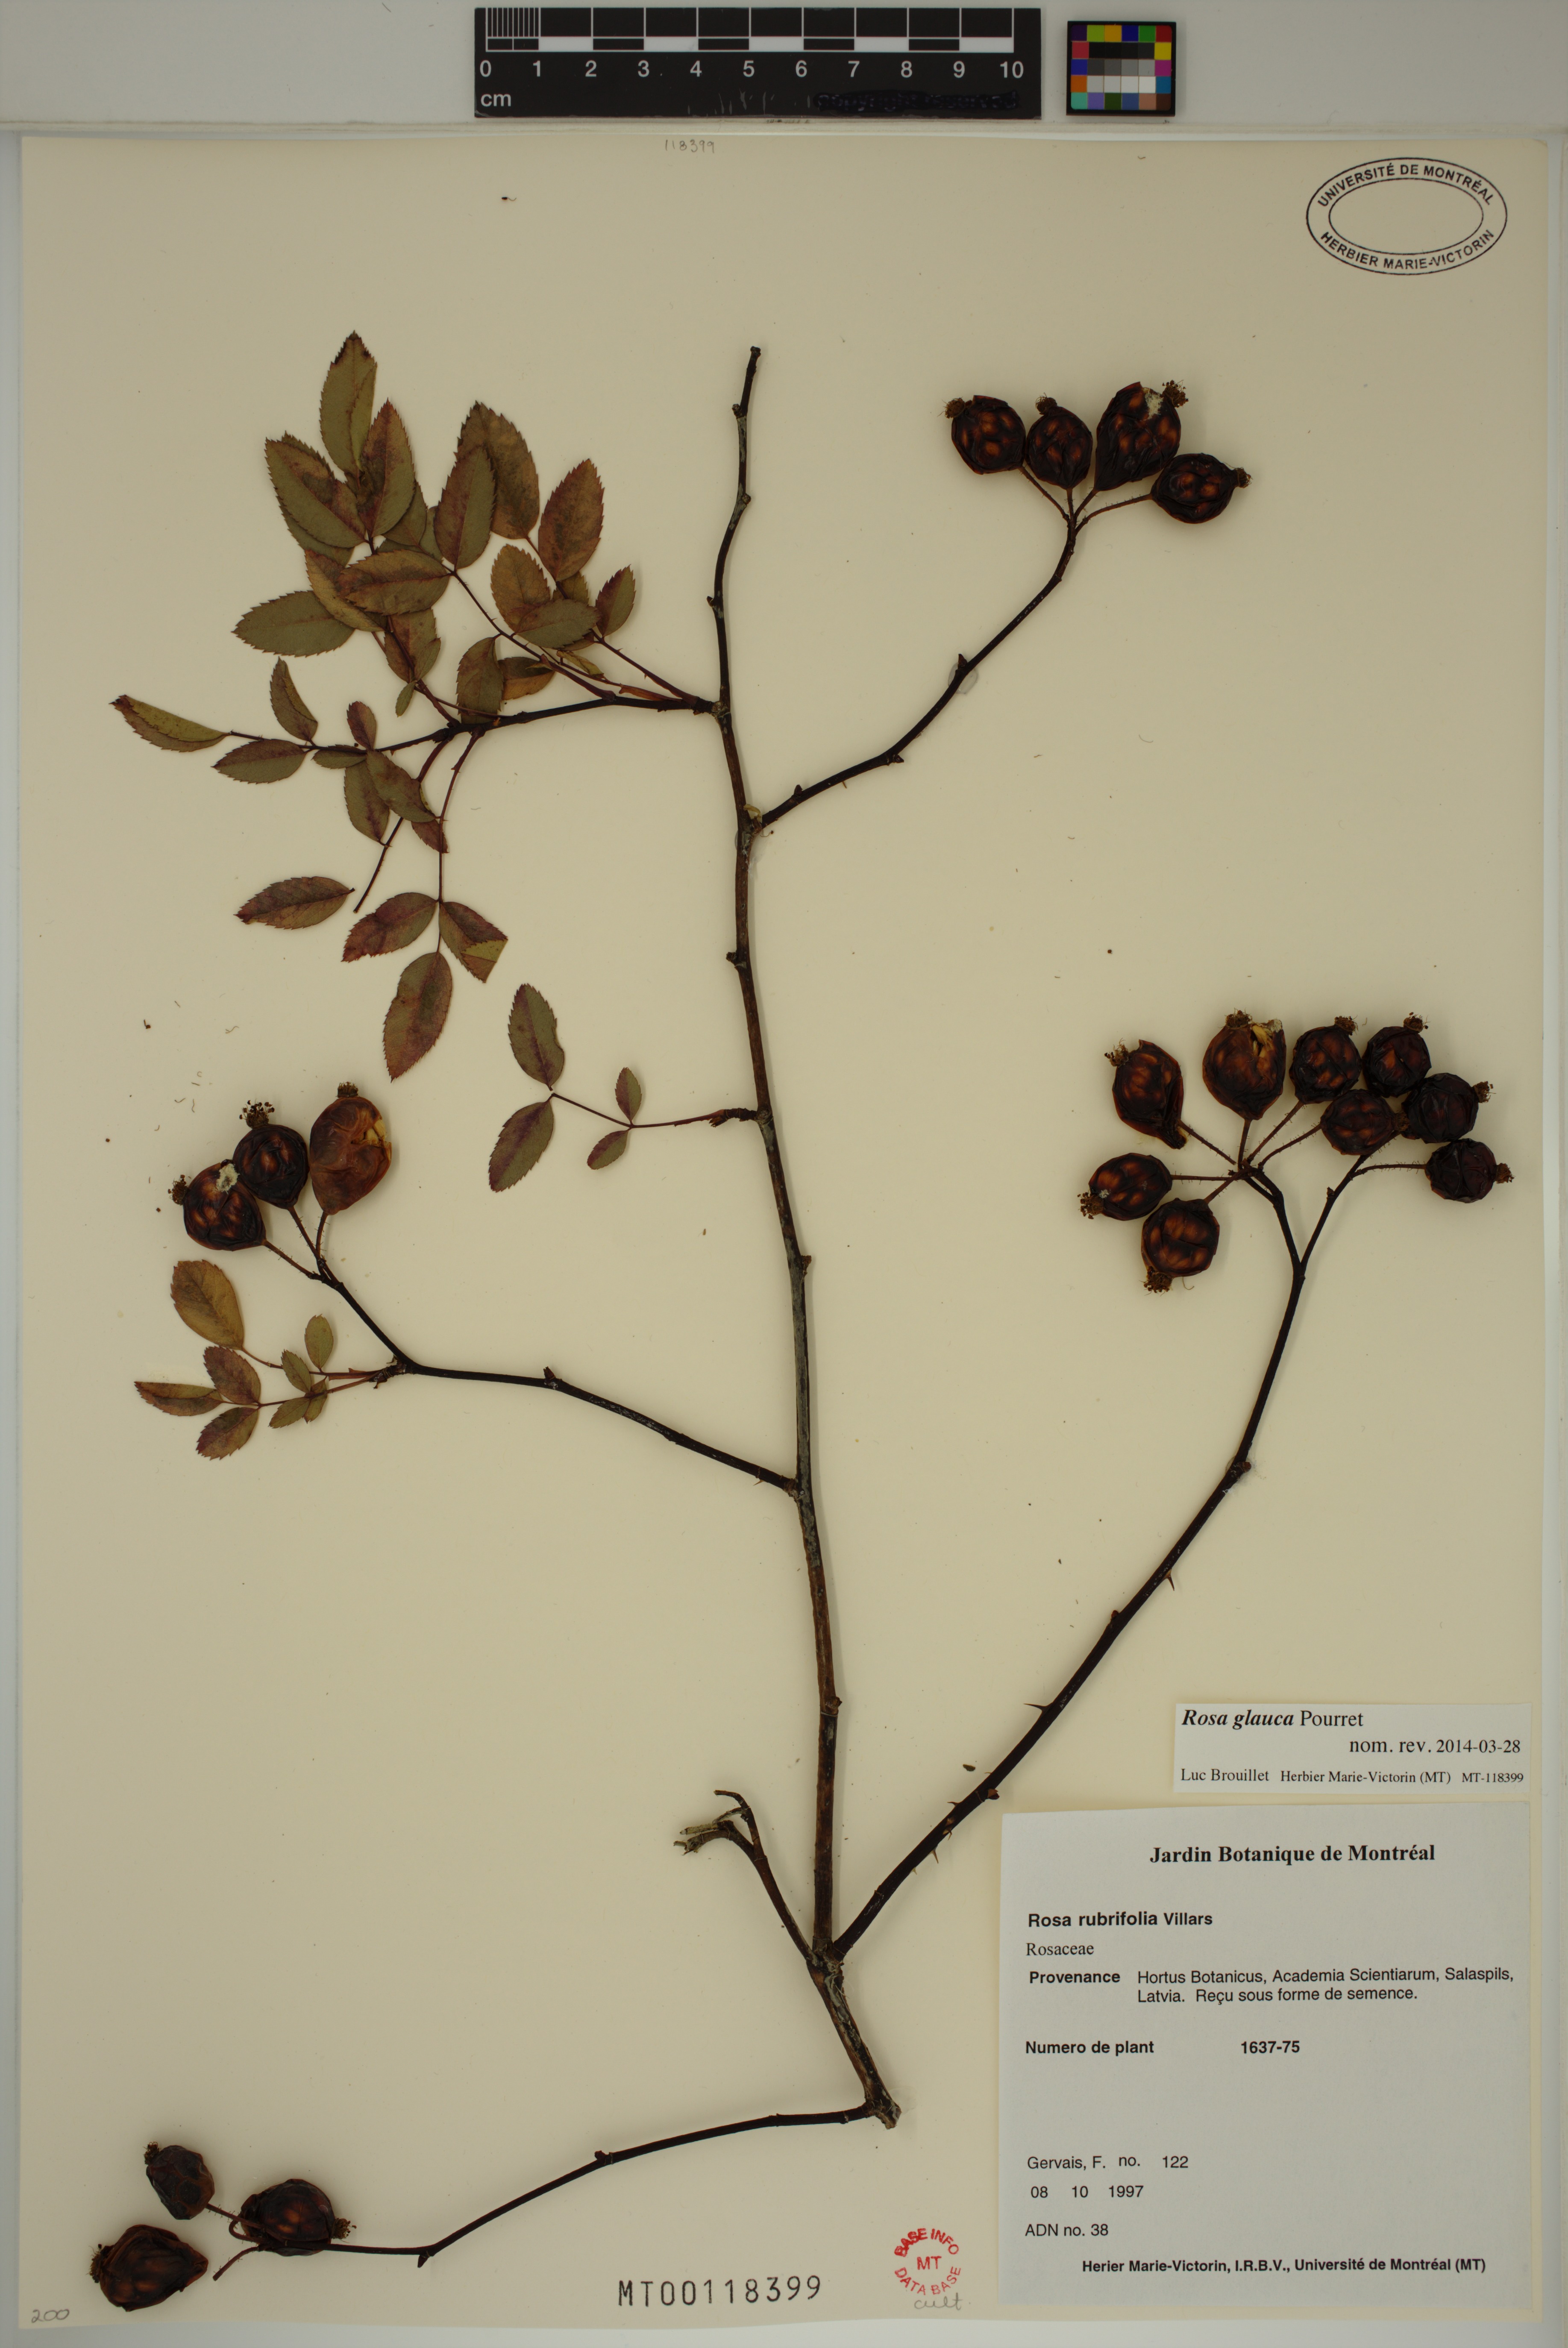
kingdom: Plantae
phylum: Tracheophyta
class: Magnoliopsida
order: Rosales
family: Rosaceae
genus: Rosa
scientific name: Rosa glauca
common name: Redleaf rose
